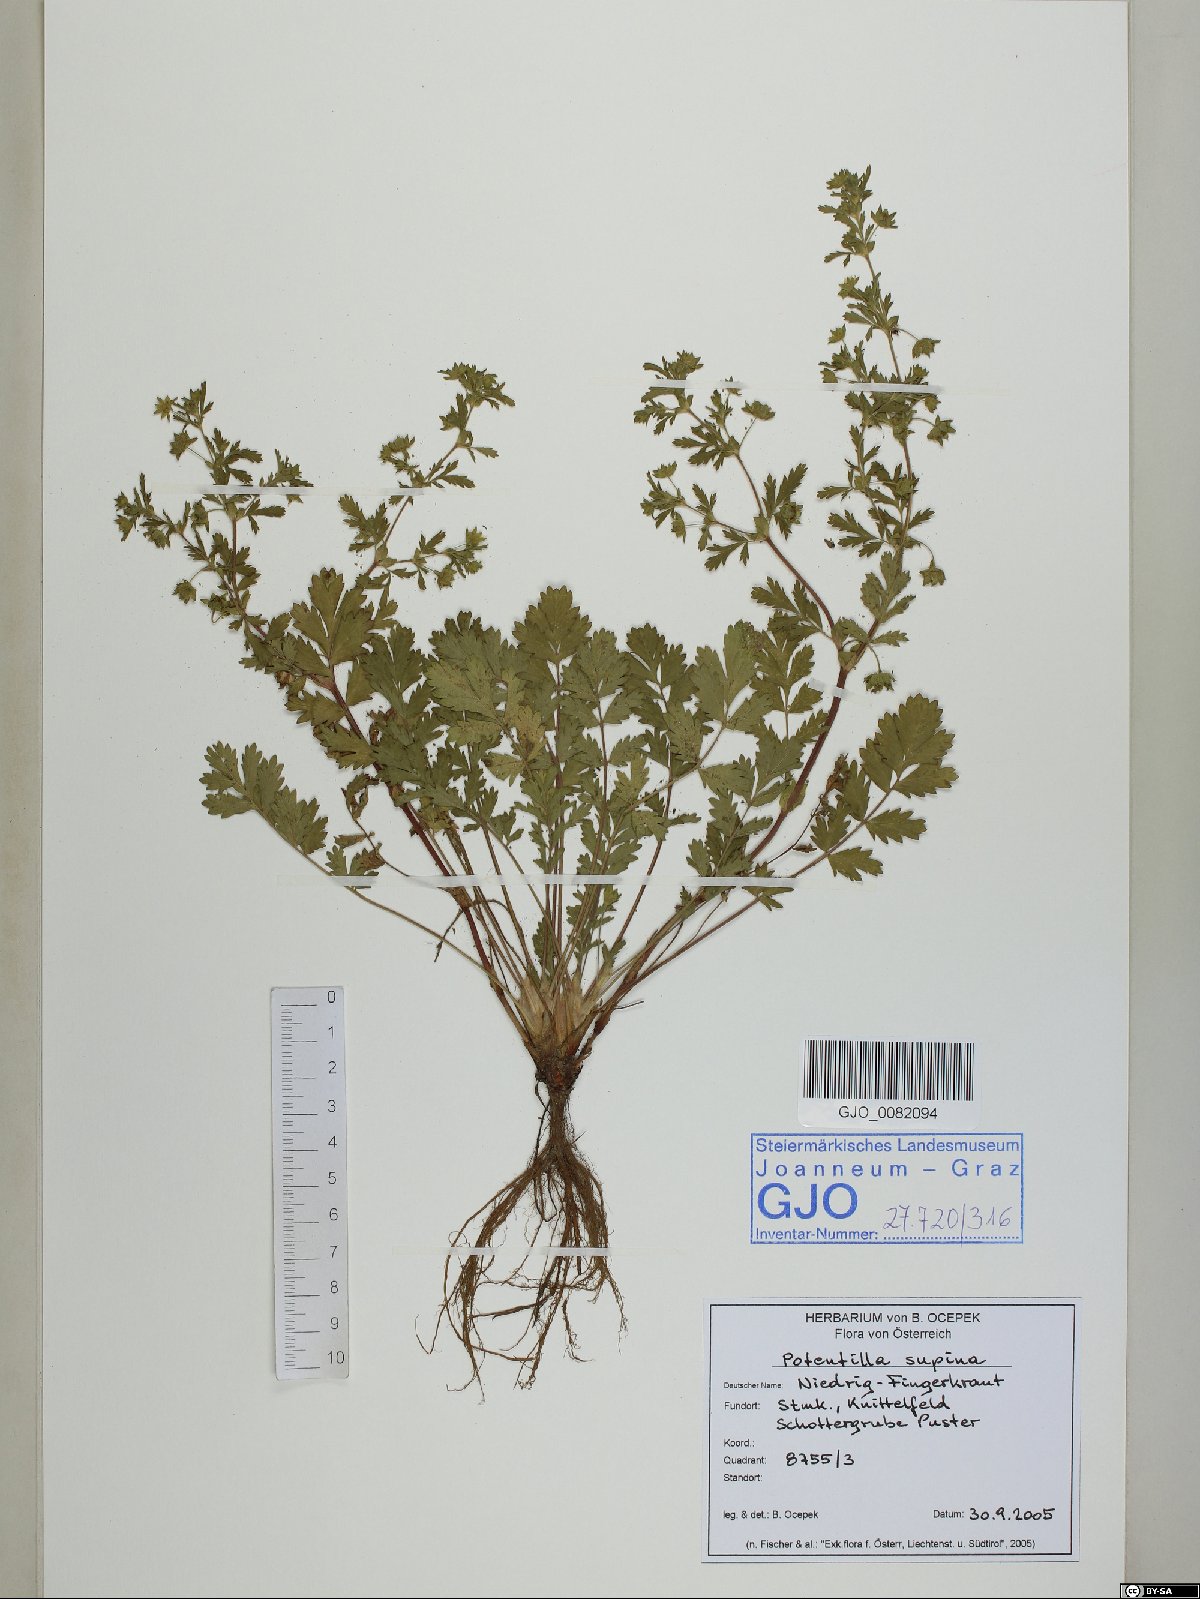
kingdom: Plantae
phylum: Tracheophyta
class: Magnoliopsida
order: Rosales
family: Rosaceae
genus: Potentilla
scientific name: Potentilla supina
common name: Prostrate cinquefoil
